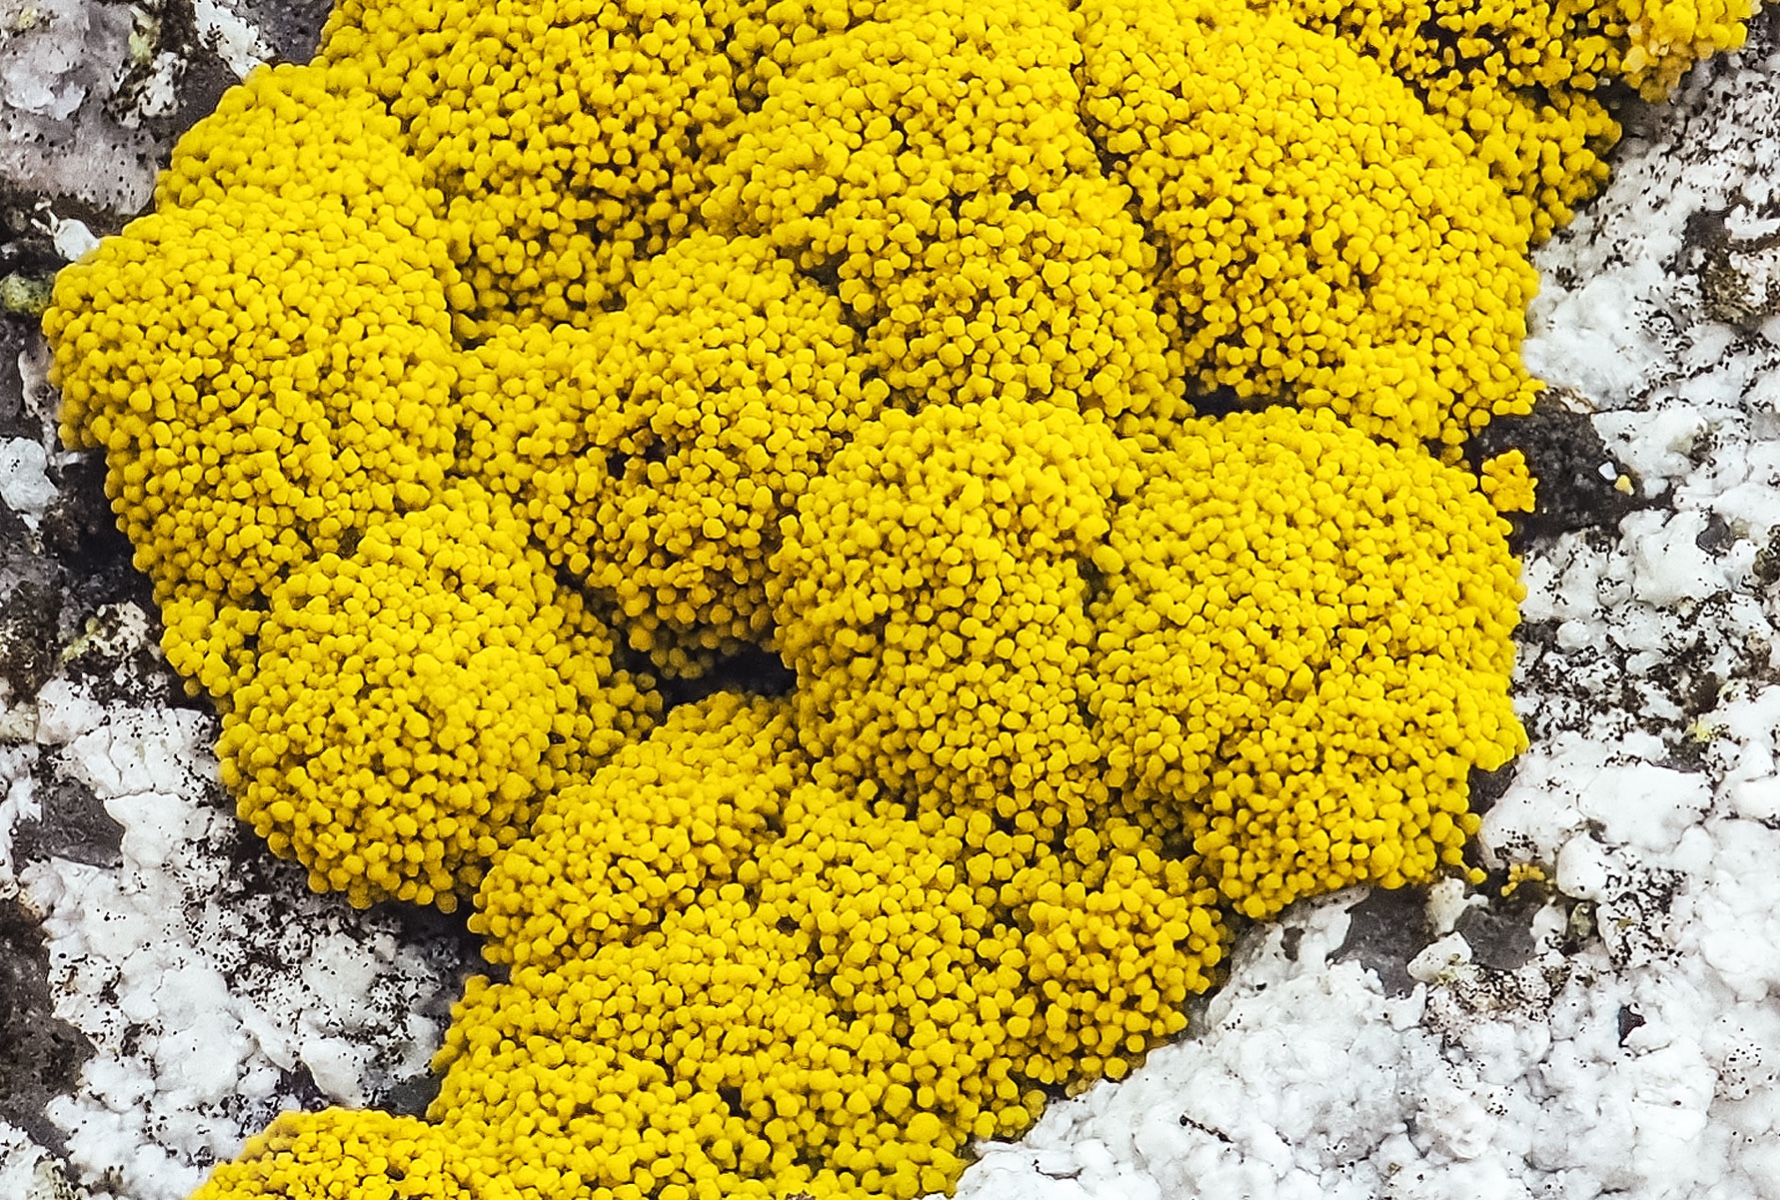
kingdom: Fungi
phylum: Ascomycota
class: Candelariomycetes
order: Candelariales
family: Candelariaceae
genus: Candelariella
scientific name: Candelariella coralliza
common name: pude-æggeblommelav
